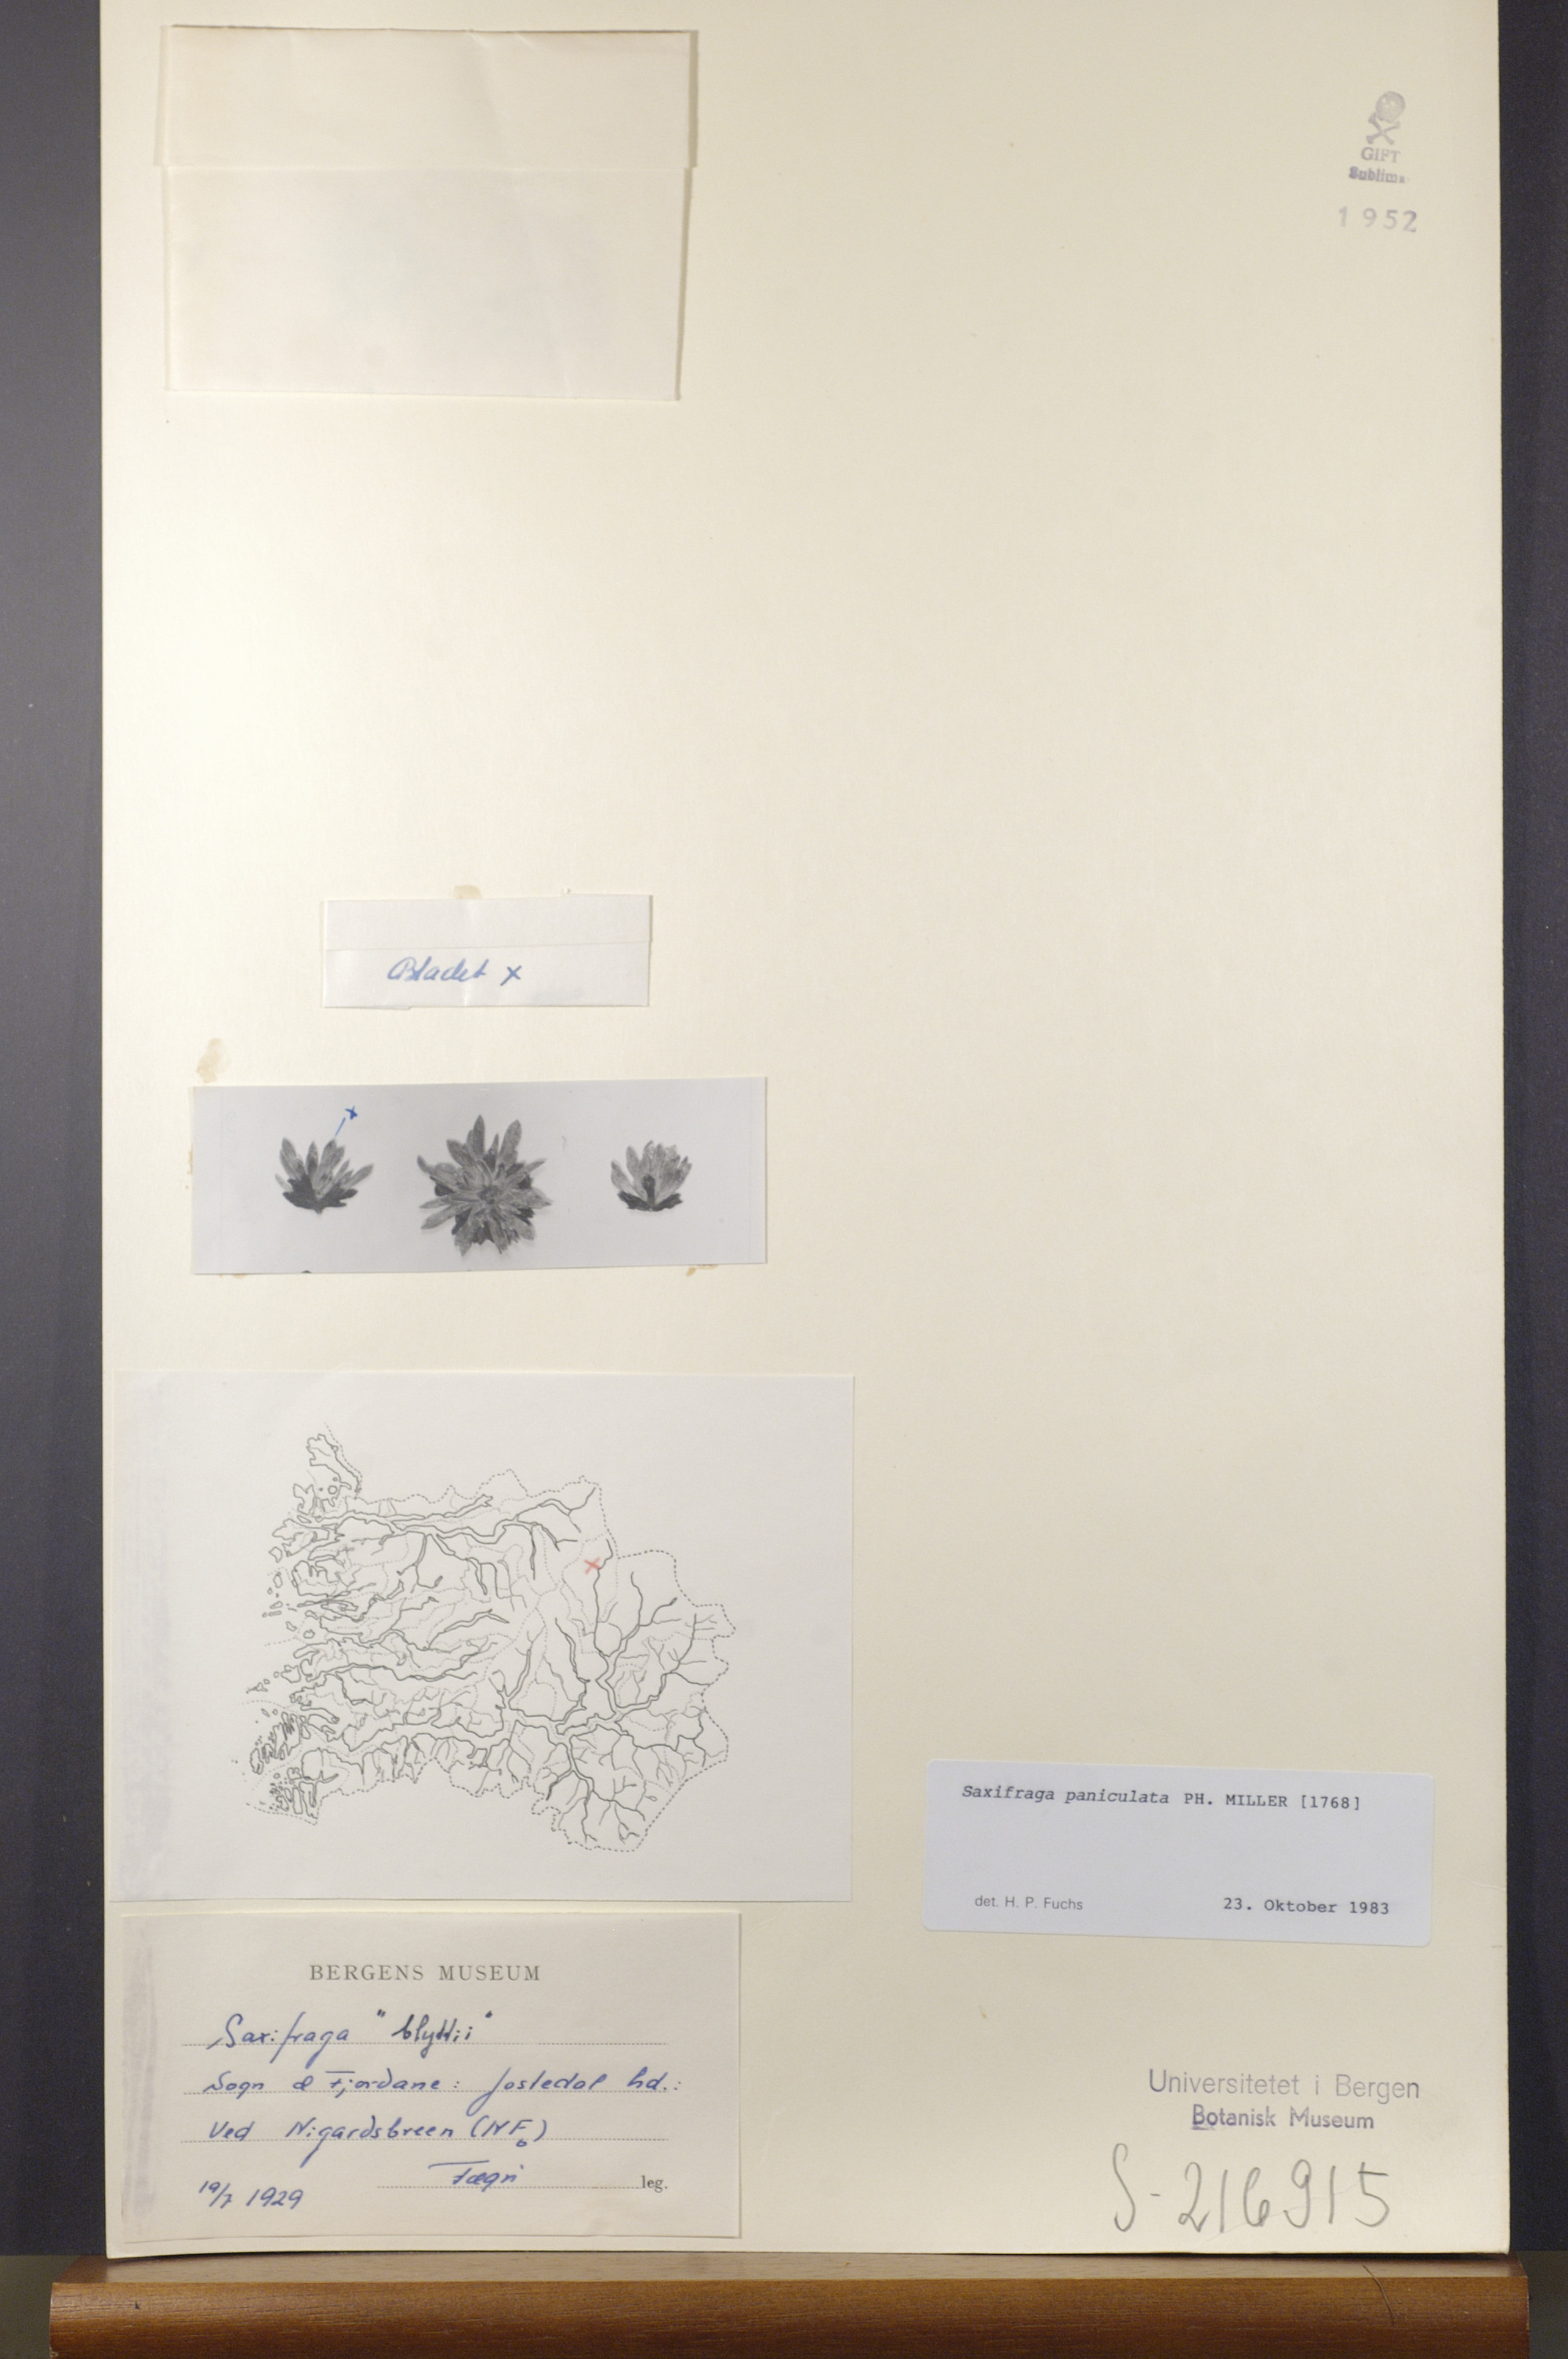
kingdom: Plantae
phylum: Tracheophyta
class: Magnoliopsida
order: Saxifragales
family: Saxifragaceae
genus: Saxifraga
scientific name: Saxifraga paniculata
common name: Livelong saxifrage
